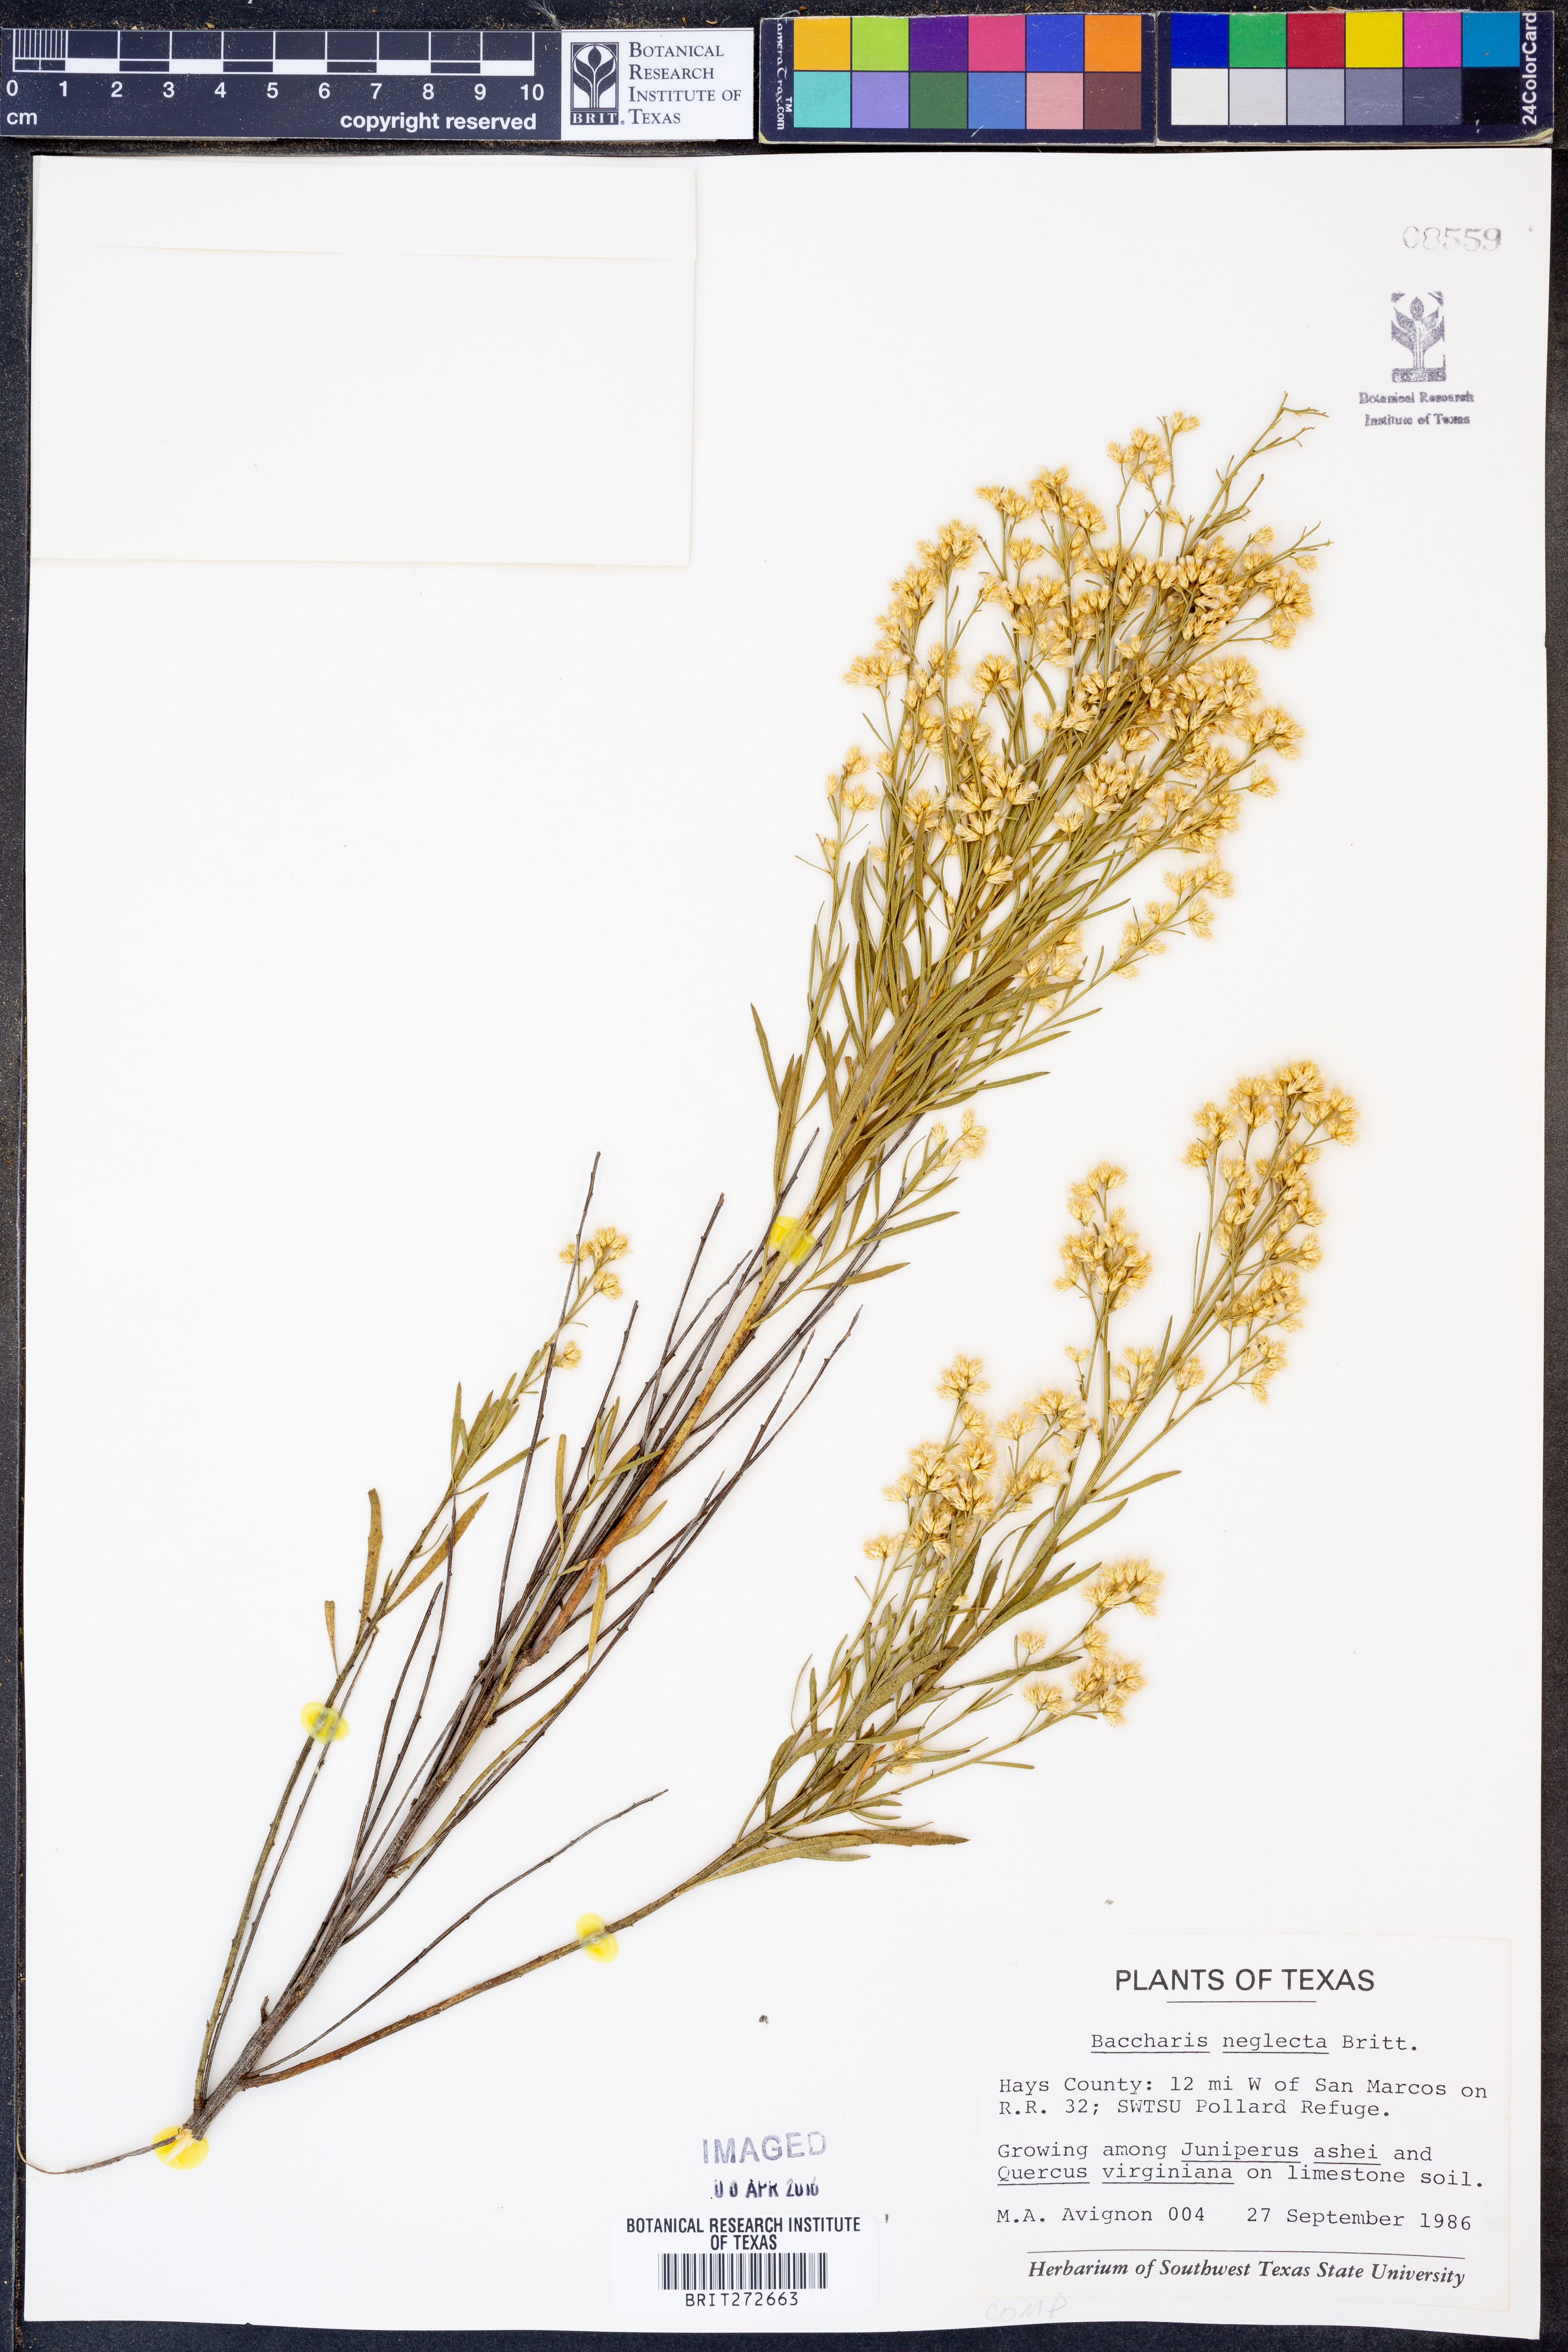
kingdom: Plantae
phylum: Tracheophyta
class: Magnoliopsida
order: Asterales
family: Asteraceae
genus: Baccharis
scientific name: Baccharis neglecta
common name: Roosevelt-weed
